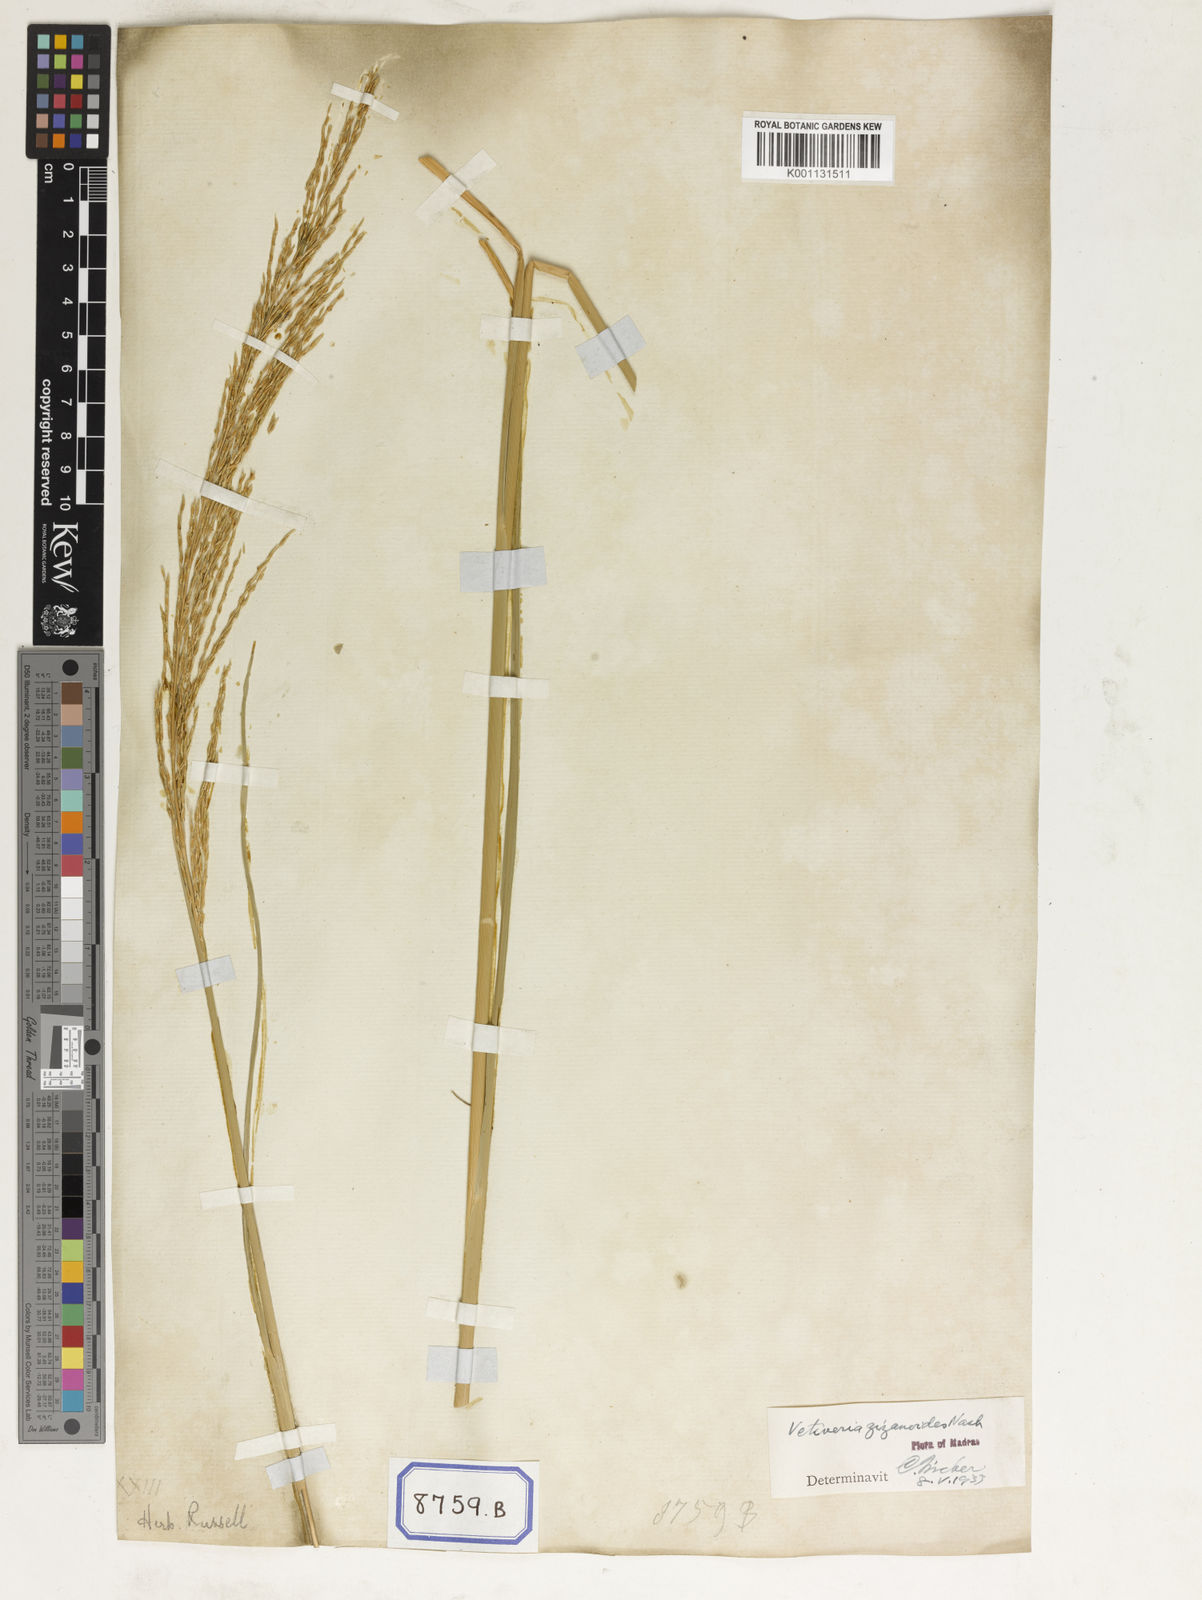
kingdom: Plantae
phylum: Tracheophyta
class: Liliopsida
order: Poales
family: Poaceae
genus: Chrysopogon
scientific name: Chrysopogon zizanioides
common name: False beardgrass
